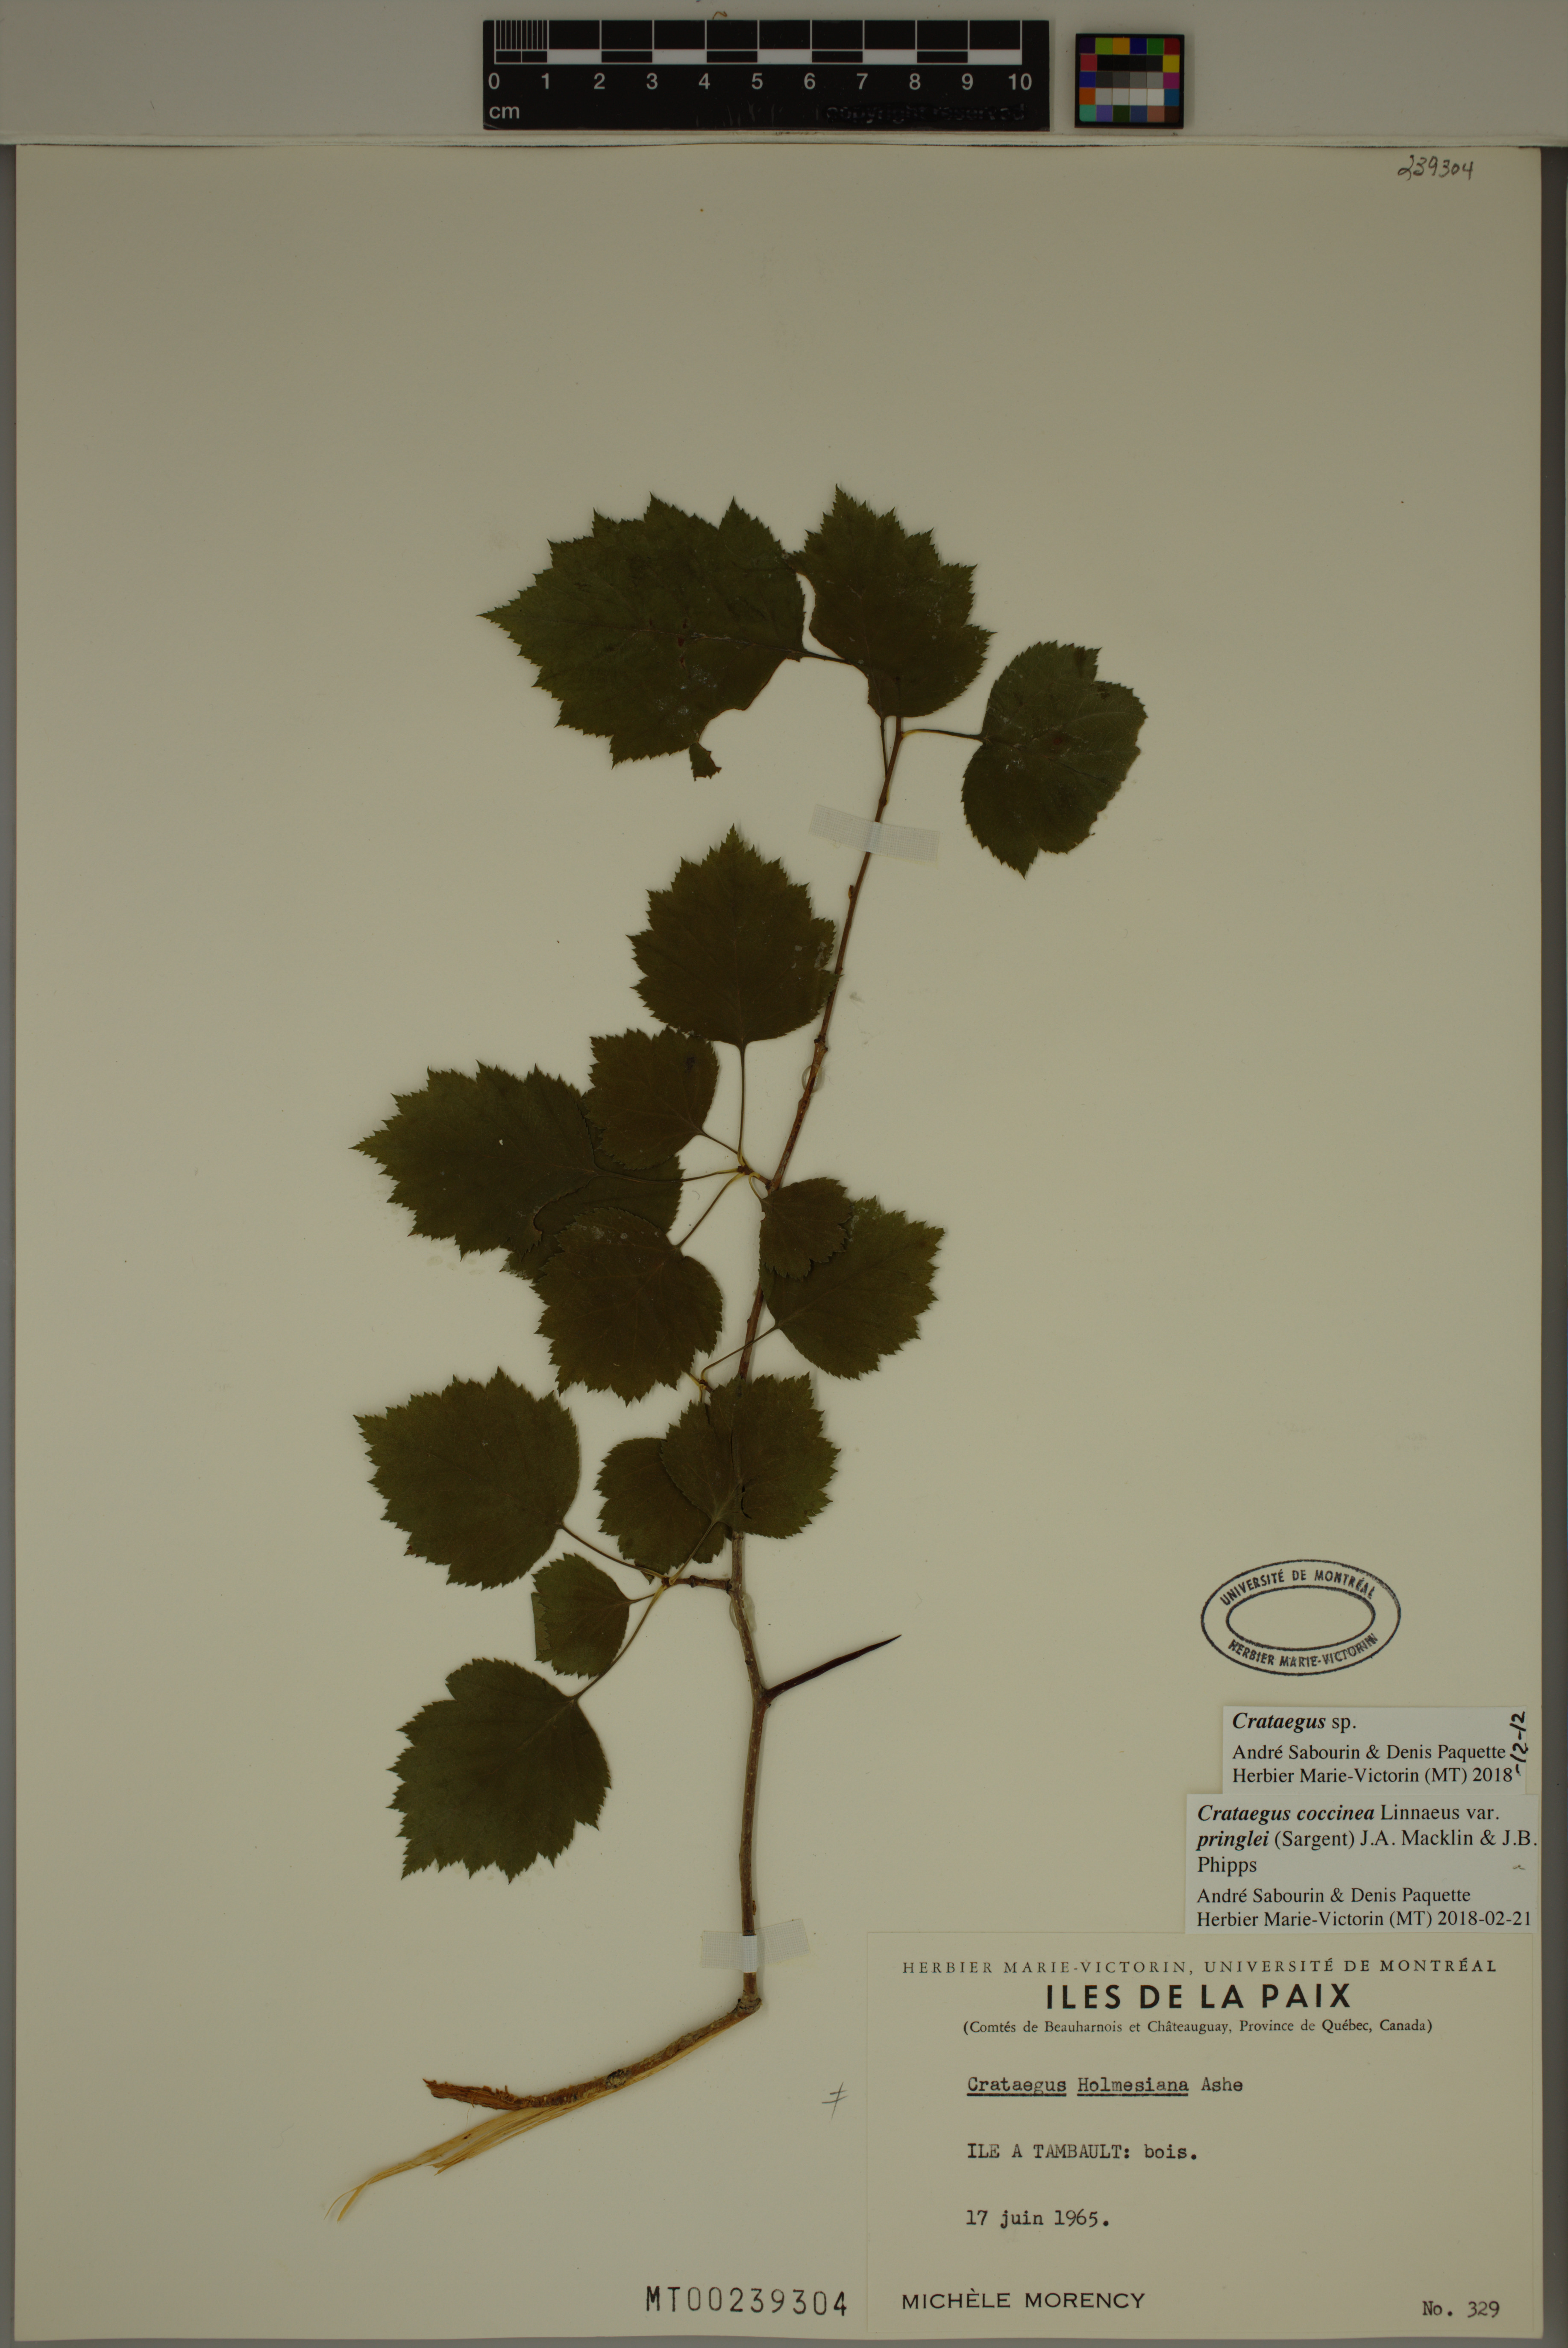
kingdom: Plantae
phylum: Tracheophyta
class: Magnoliopsida
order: Rosales
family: Rosaceae
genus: Crataegus
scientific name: Crataegus
